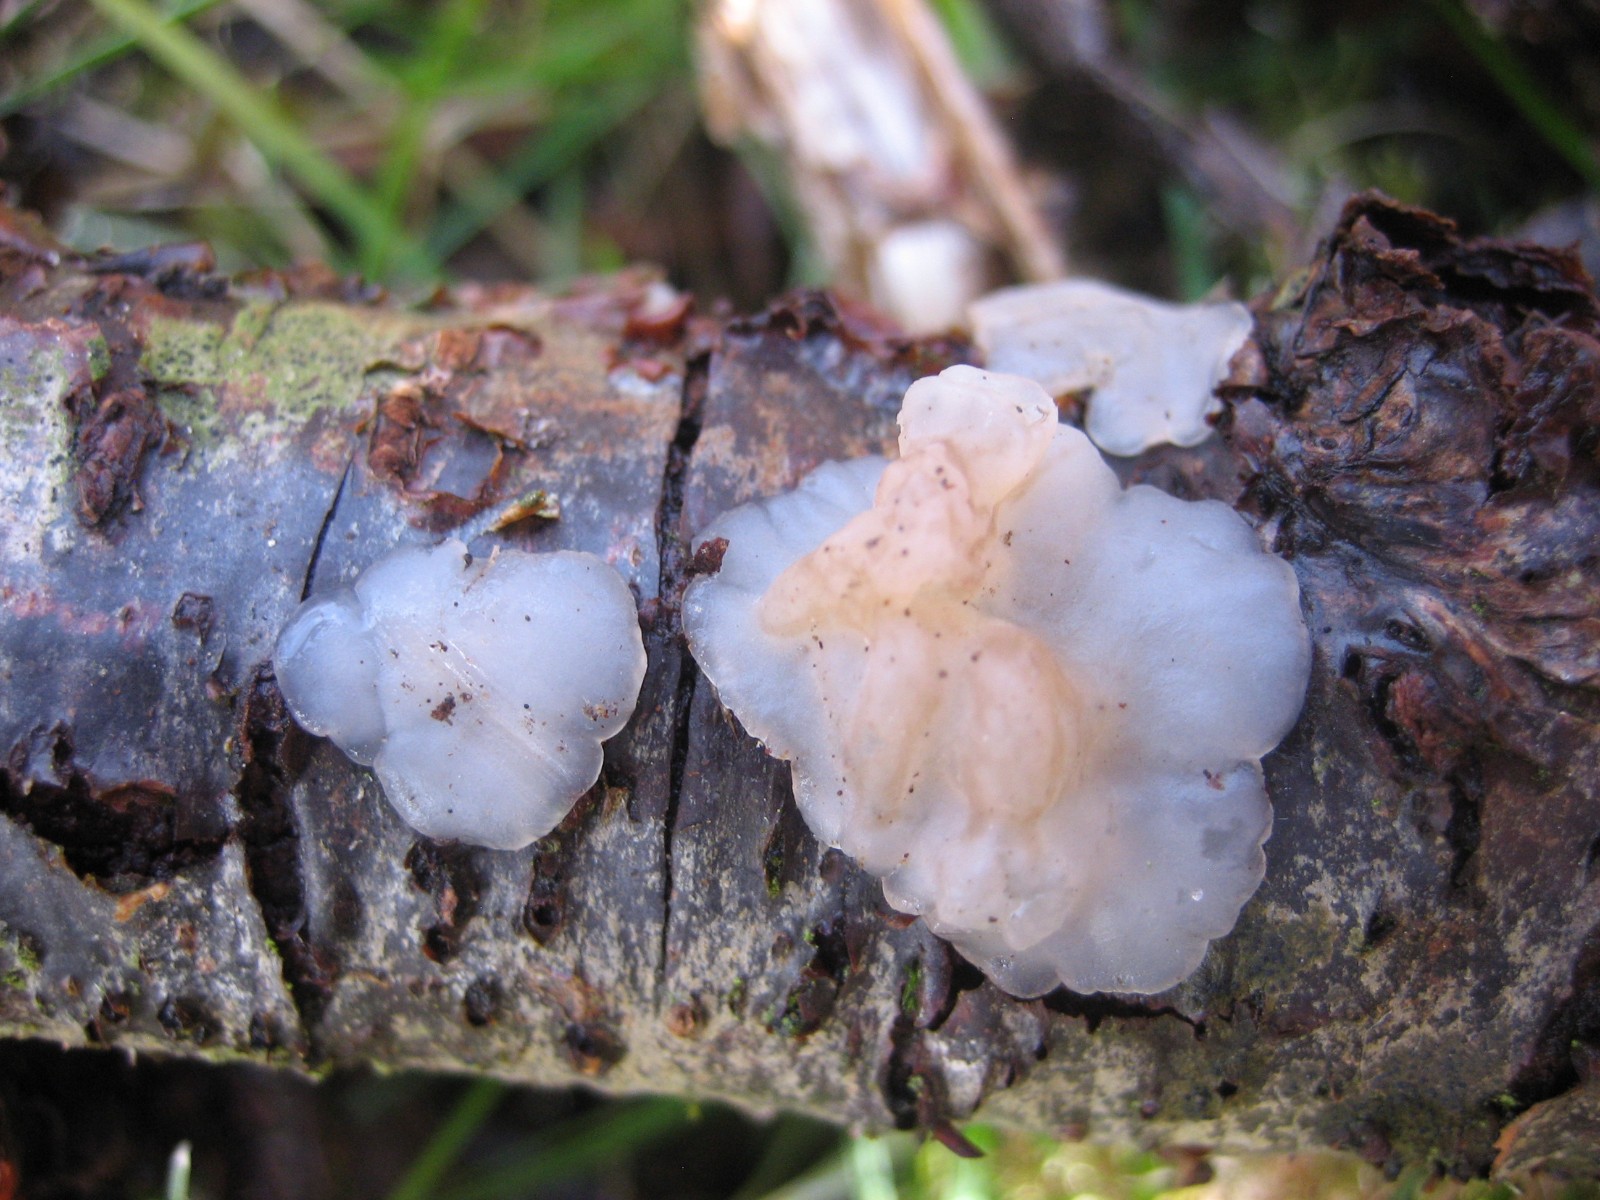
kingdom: Fungi
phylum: Basidiomycota
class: Agaricomycetes
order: Auriculariales
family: Auriculariaceae
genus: Exidia
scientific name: Exidia thuretiana
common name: hvidlig bævretop
